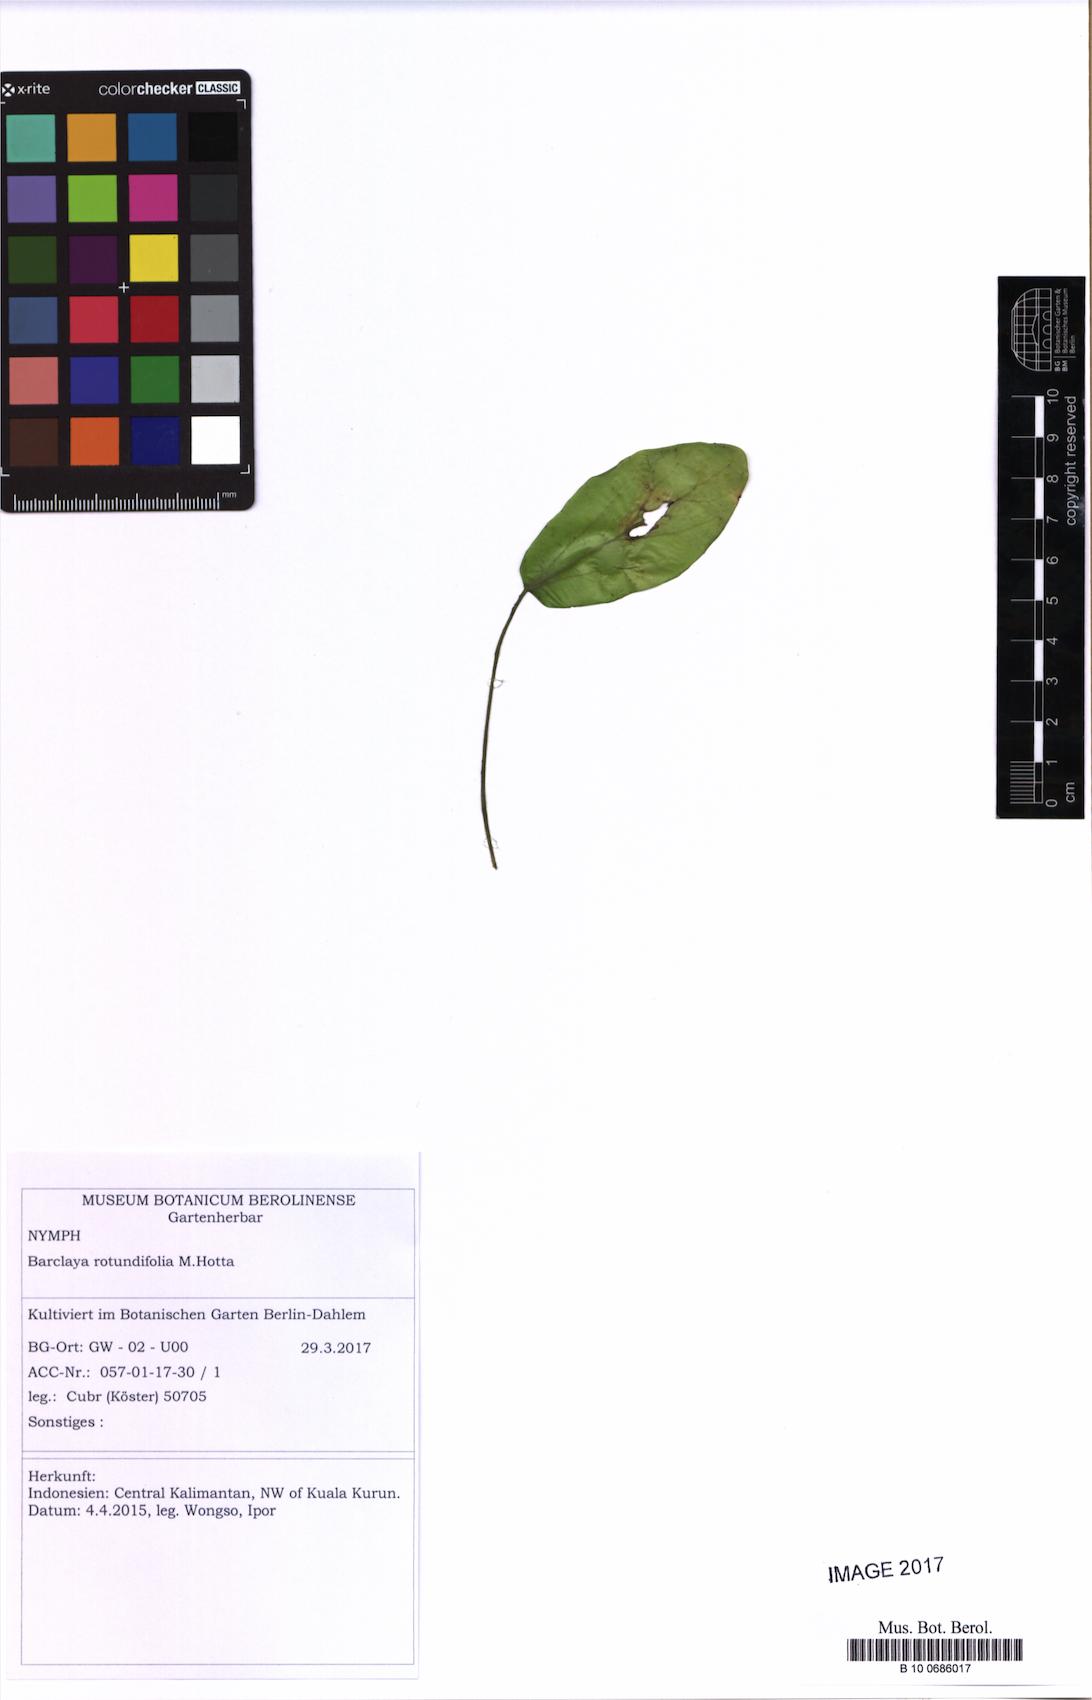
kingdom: Plantae
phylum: Tracheophyta
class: Magnoliopsida
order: Nymphaeales
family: Nymphaeaceae
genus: Barclaya
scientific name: Barclaya rotundifolia
